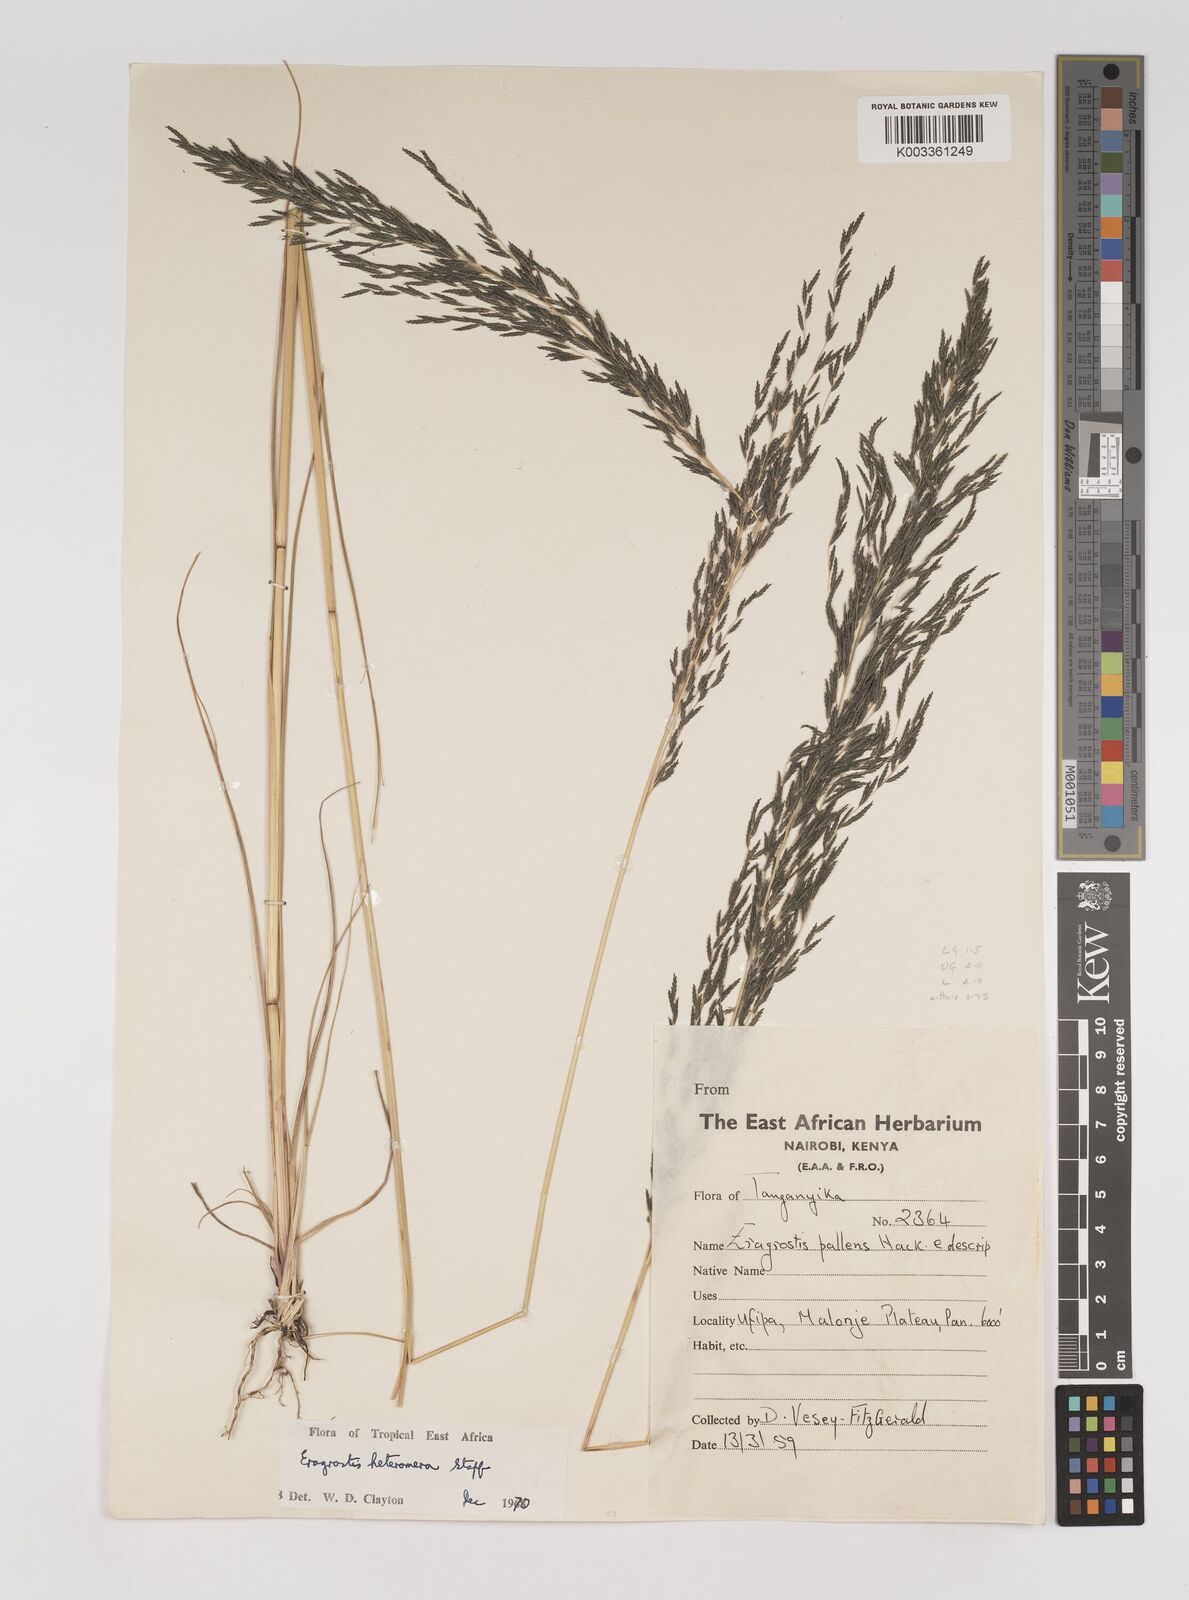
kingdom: Plantae
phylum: Tracheophyta
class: Liliopsida
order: Poales
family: Poaceae
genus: Eragrostis
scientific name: Eragrostis heteromera
